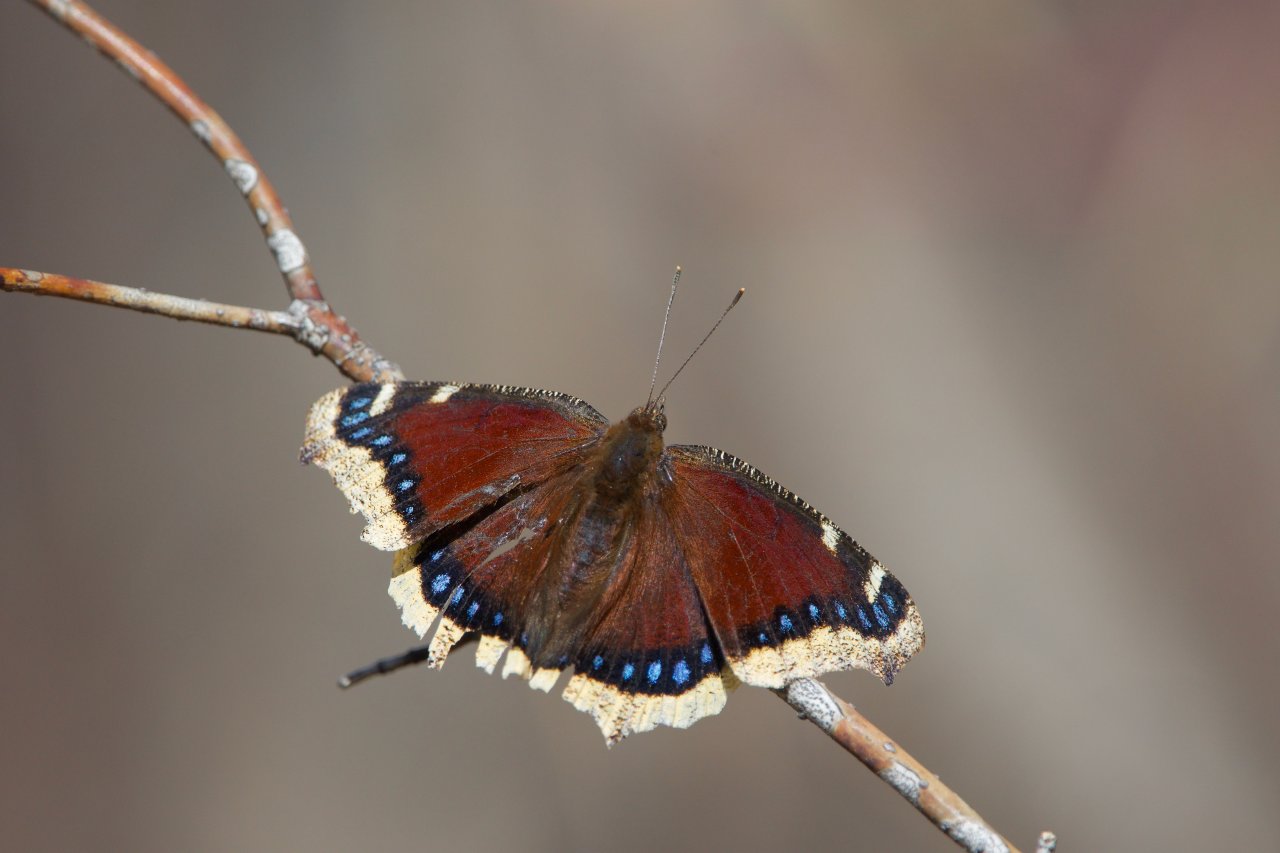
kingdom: Animalia
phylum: Arthropoda
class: Insecta
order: Lepidoptera
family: Nymphalidae
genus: Nymphalis
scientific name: Nymphalis antiopa
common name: Mourning Cloak
